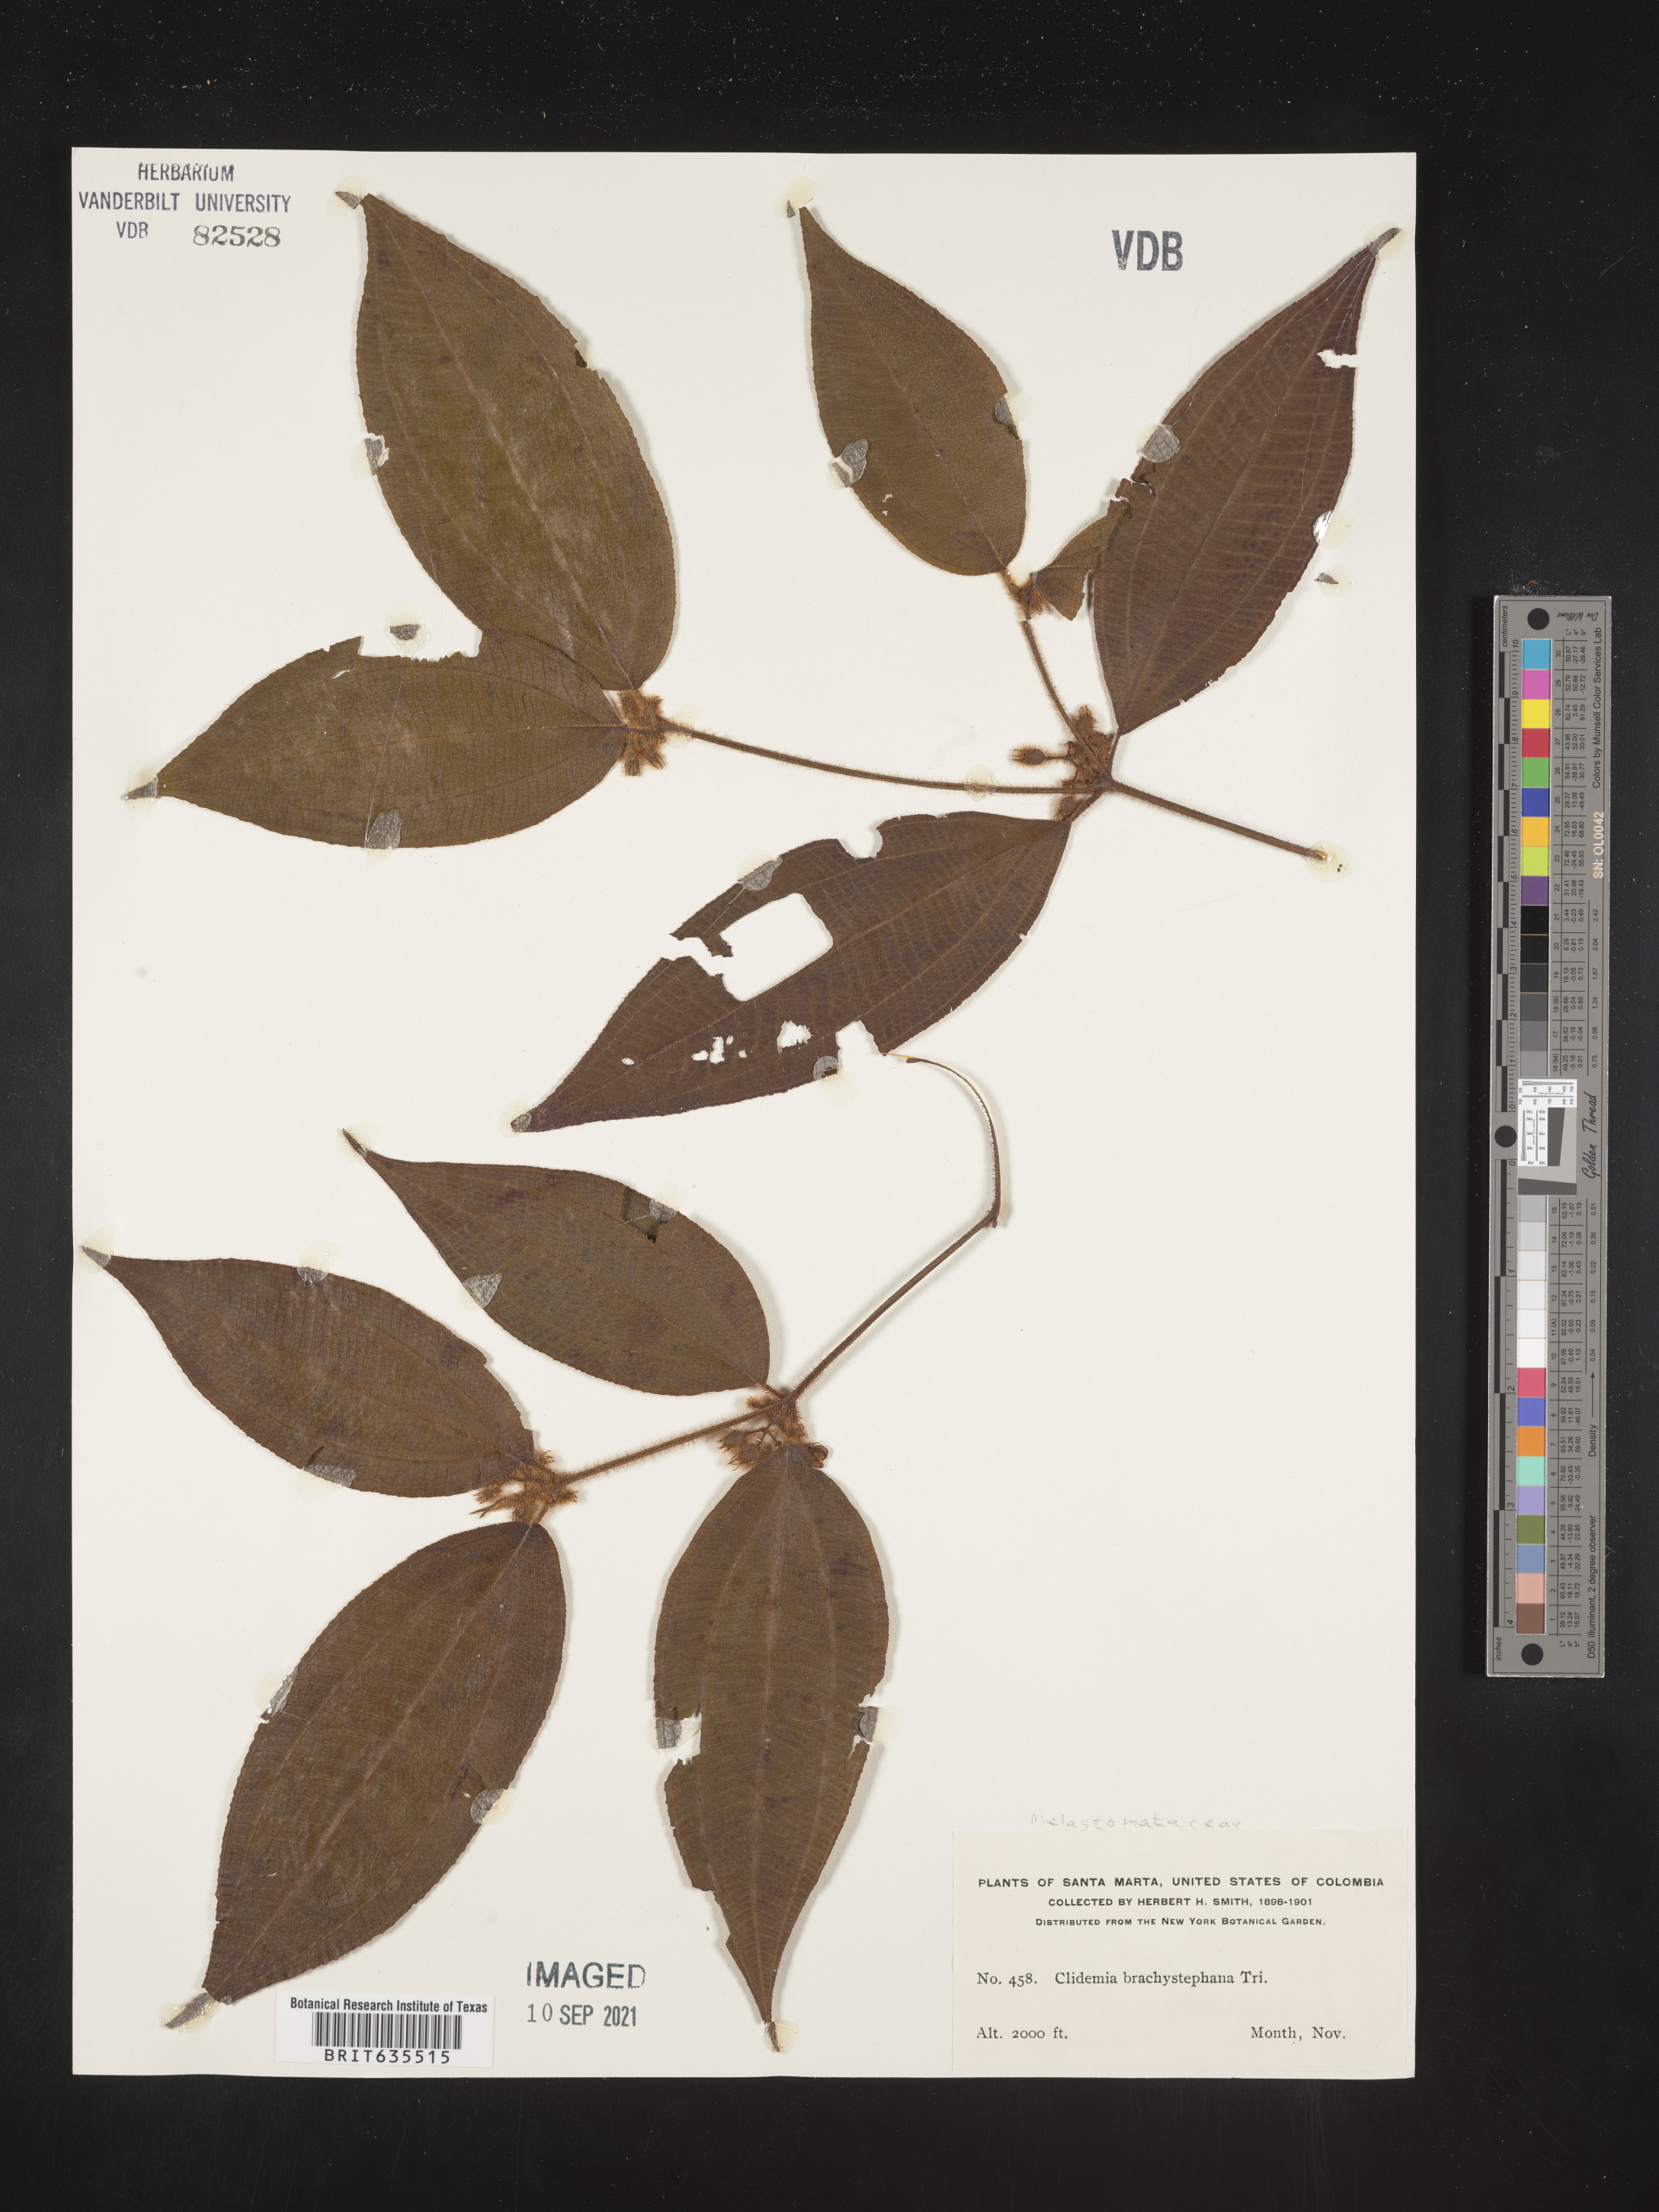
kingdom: Plantae
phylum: Tracheophyta
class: Magnoliopsida
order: Myrtales
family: Melastomataceae
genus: Miconia
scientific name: Miconia
